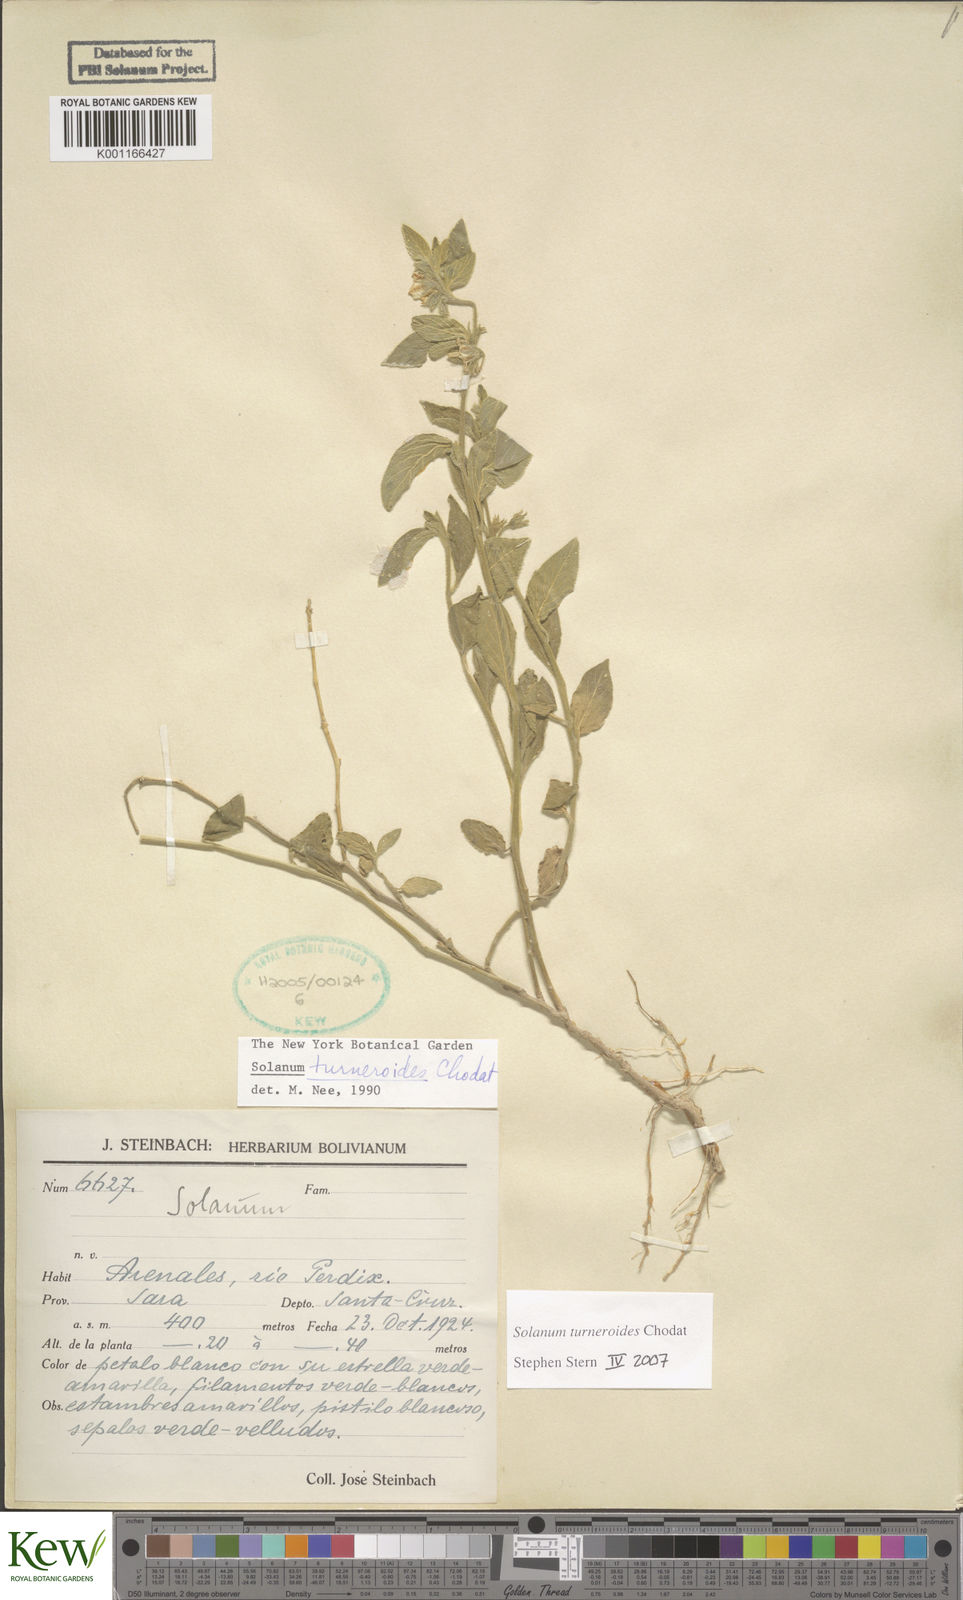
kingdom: Plantae
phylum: Tracheophyta
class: Magnoliopsida
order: Solanales
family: Solanaceae
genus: Solanum
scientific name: Solanum turneroides
